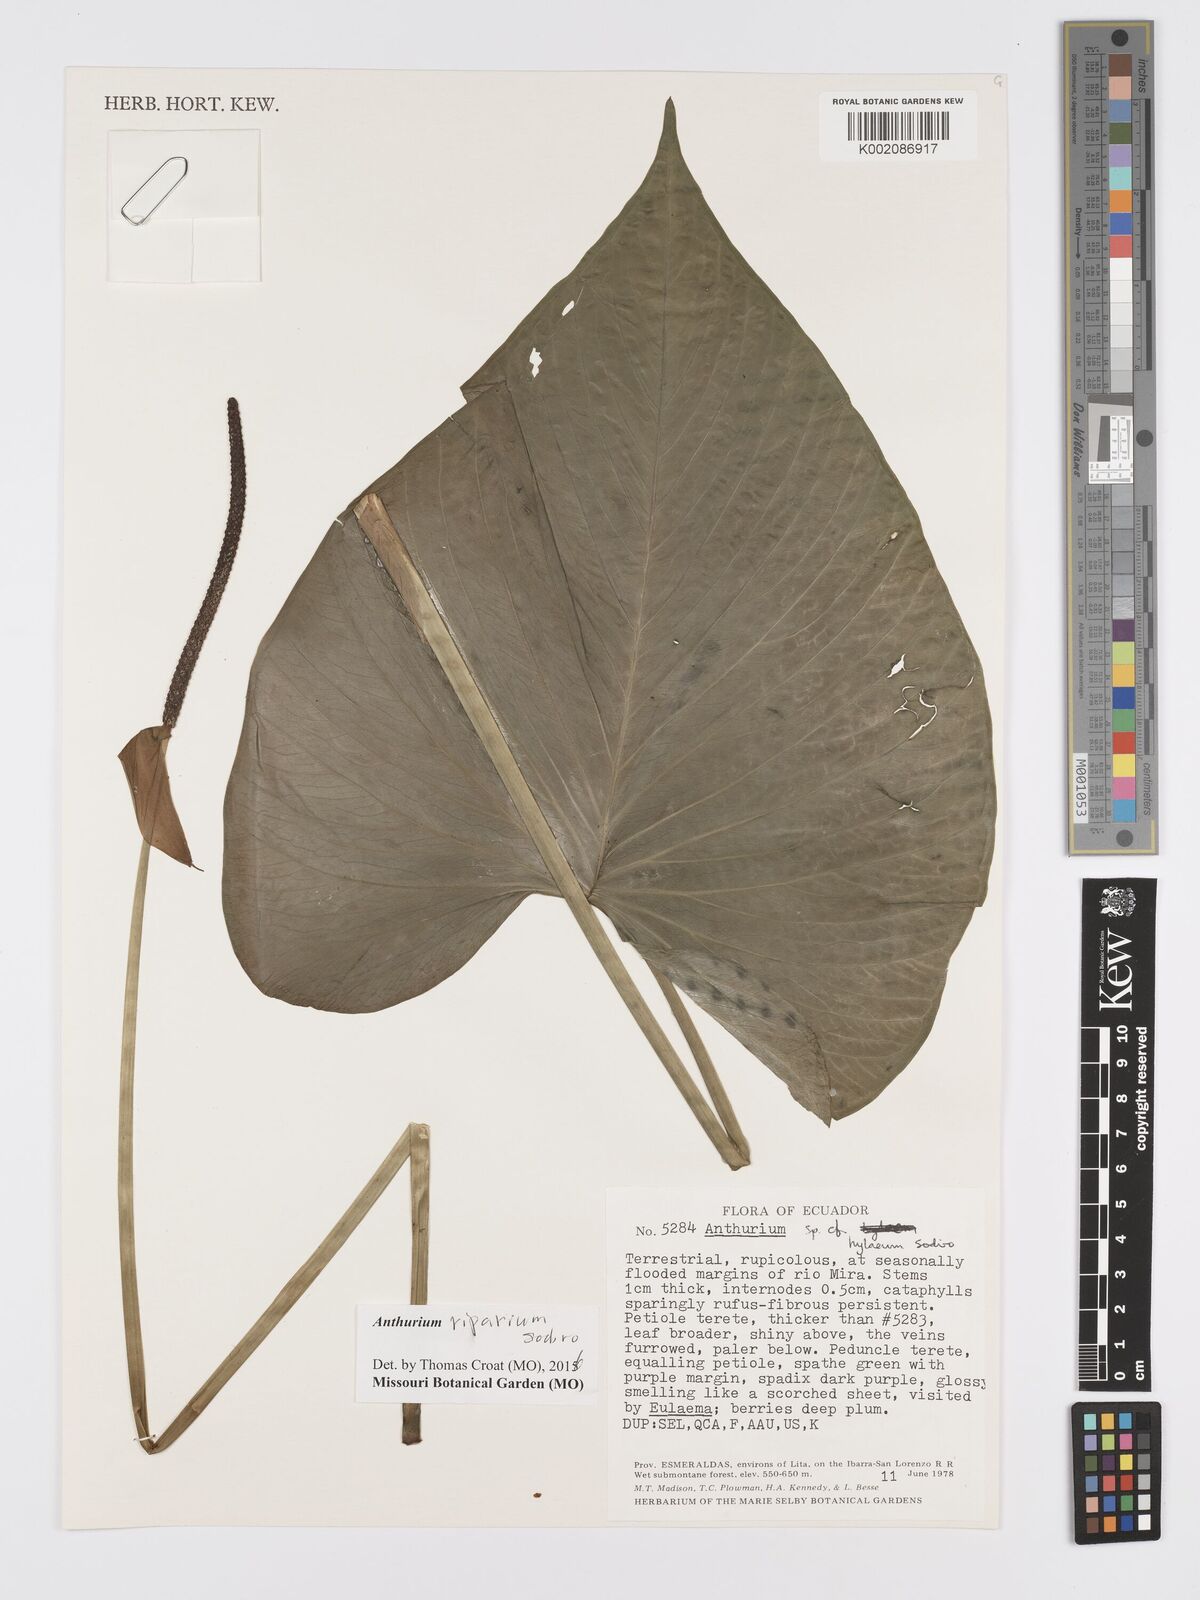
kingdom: Plantae
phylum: Tracheophyta
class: Liliopsida
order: Alismatales
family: Araceae
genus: Anthurium
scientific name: Anthurium riparium
